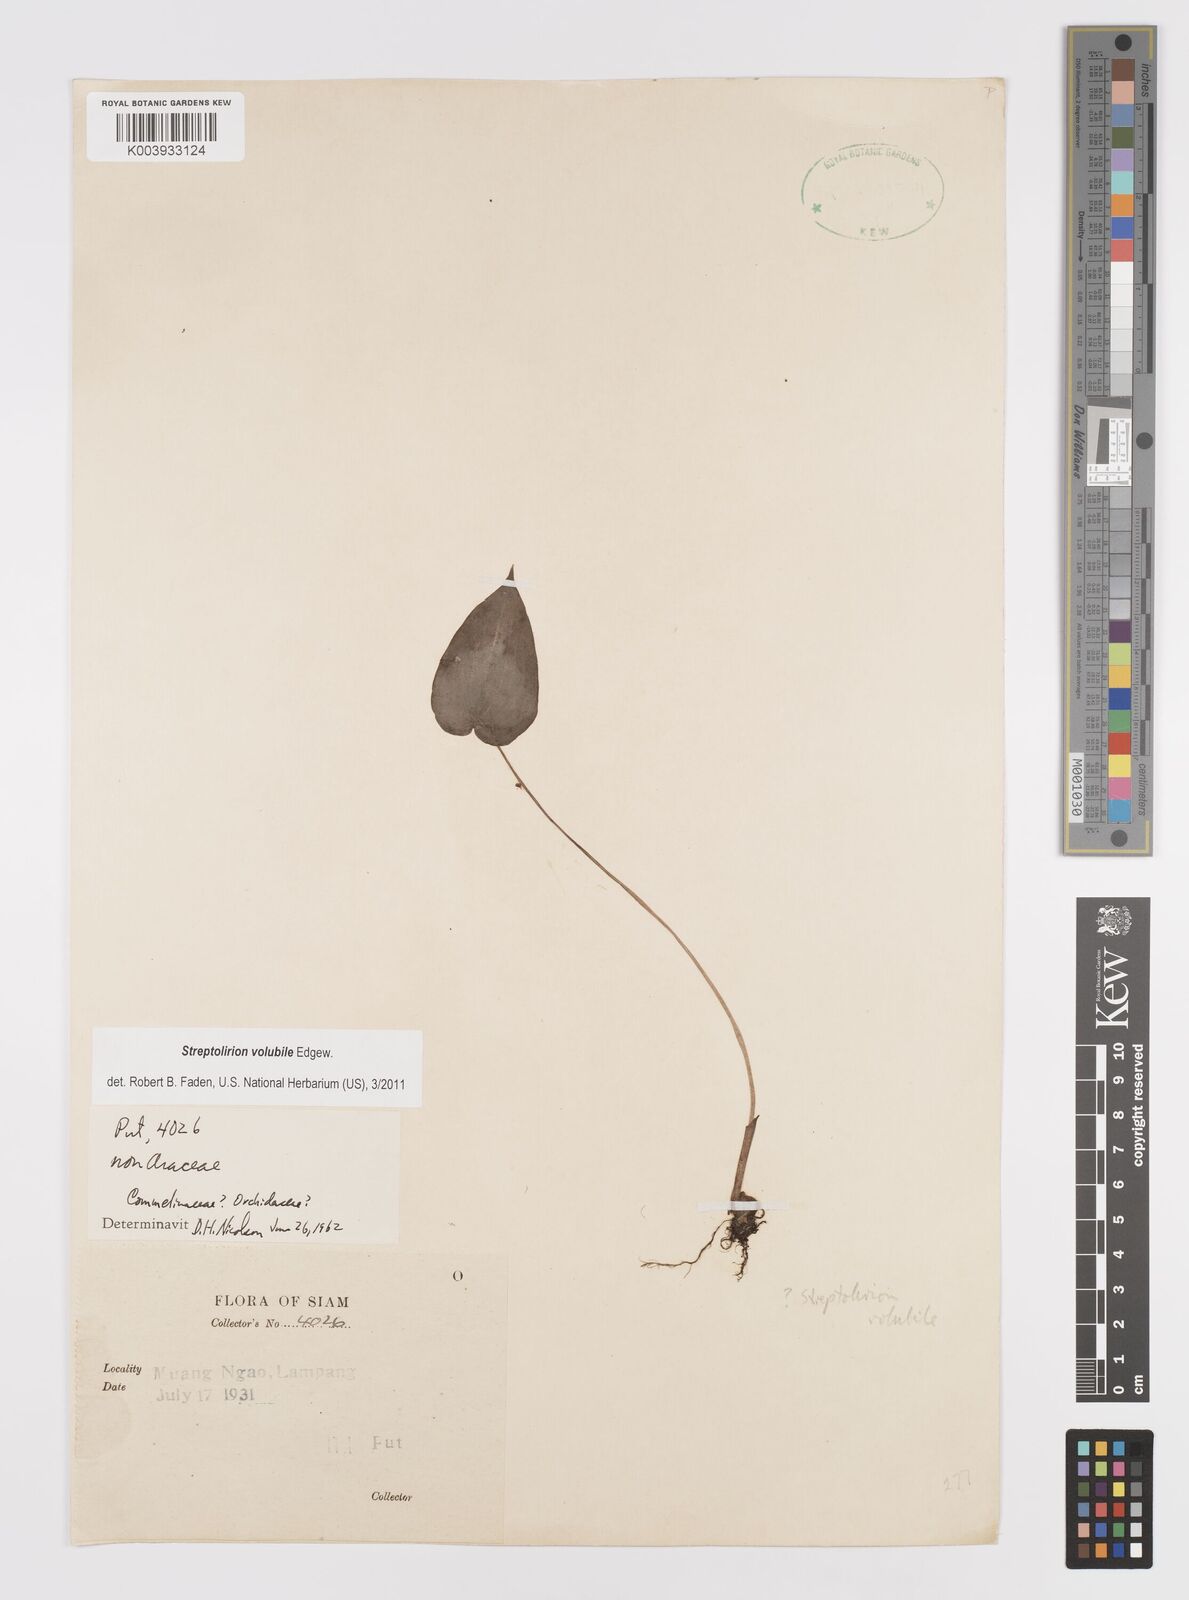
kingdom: Plantae
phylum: Tracheophyta
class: Liliopsida
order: Commelinales
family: Commelinaceae
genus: Streptolirion
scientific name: Streptolirion volubile
